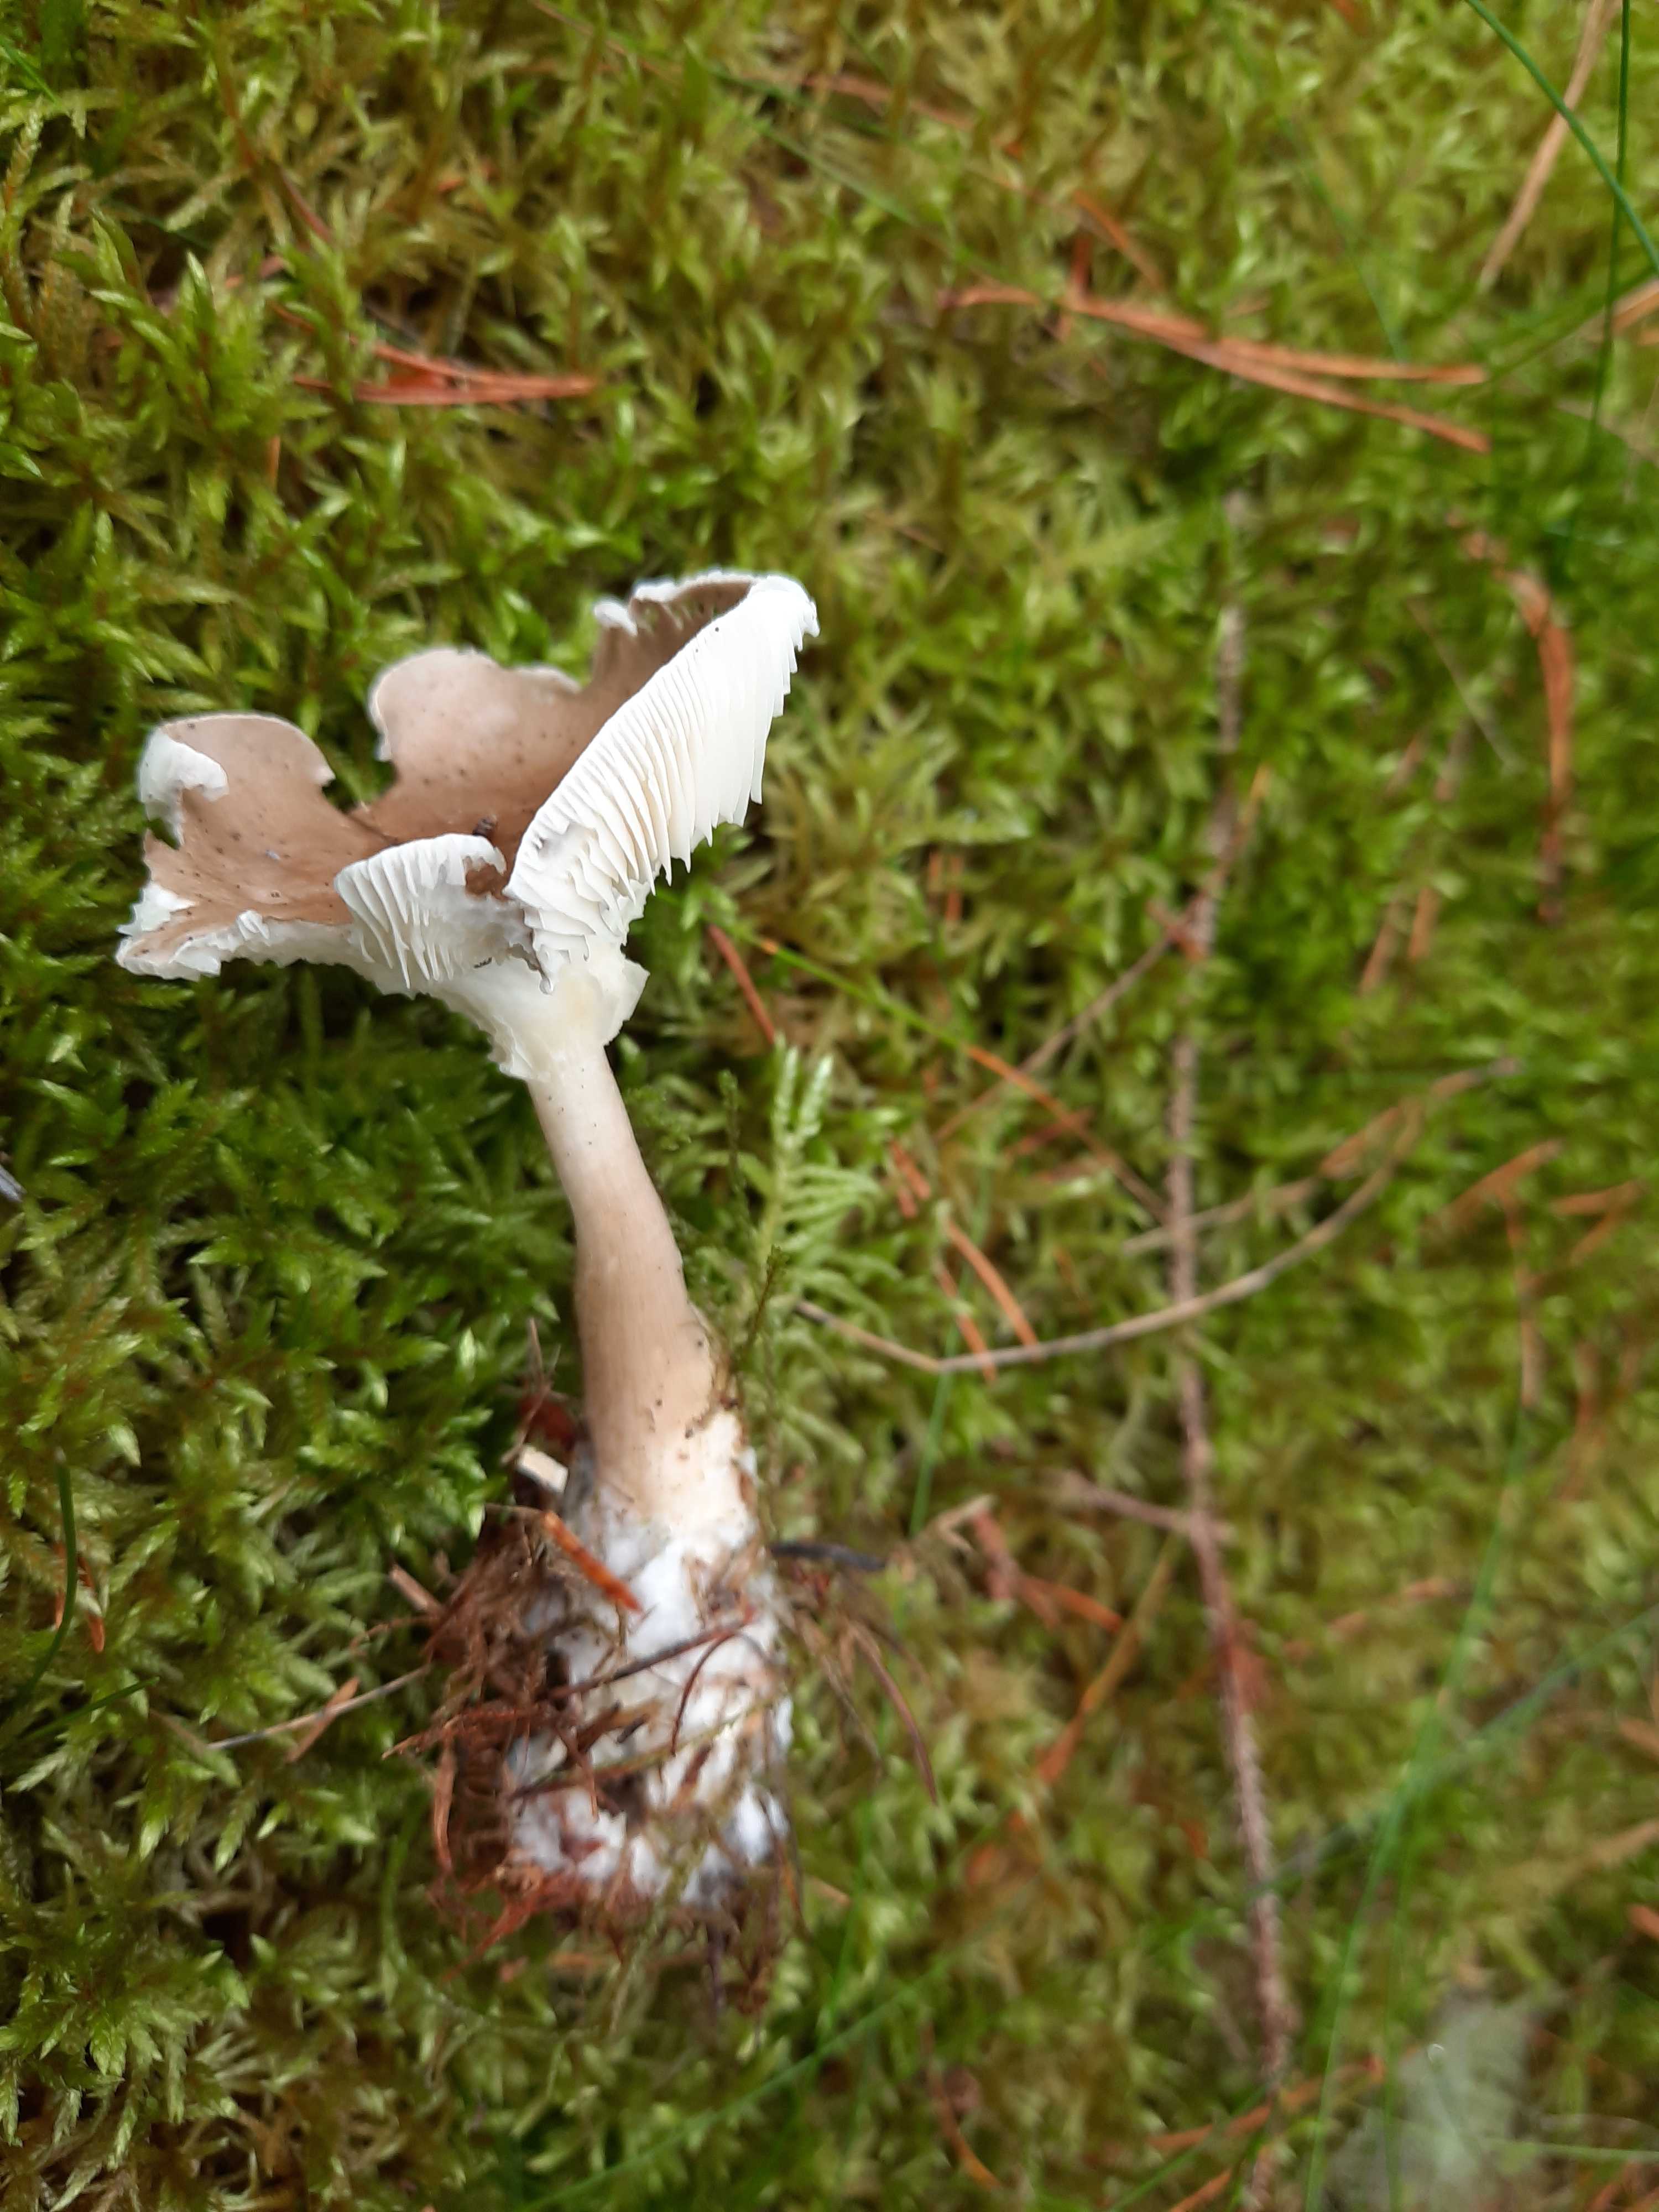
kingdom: Fungi
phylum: Basidiomycota
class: Agaricomycetes
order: Agaricales
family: Hygrophoraceae
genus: Ampulloclitocybe
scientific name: Ampulloclitocybe clavipes
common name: køllefod
